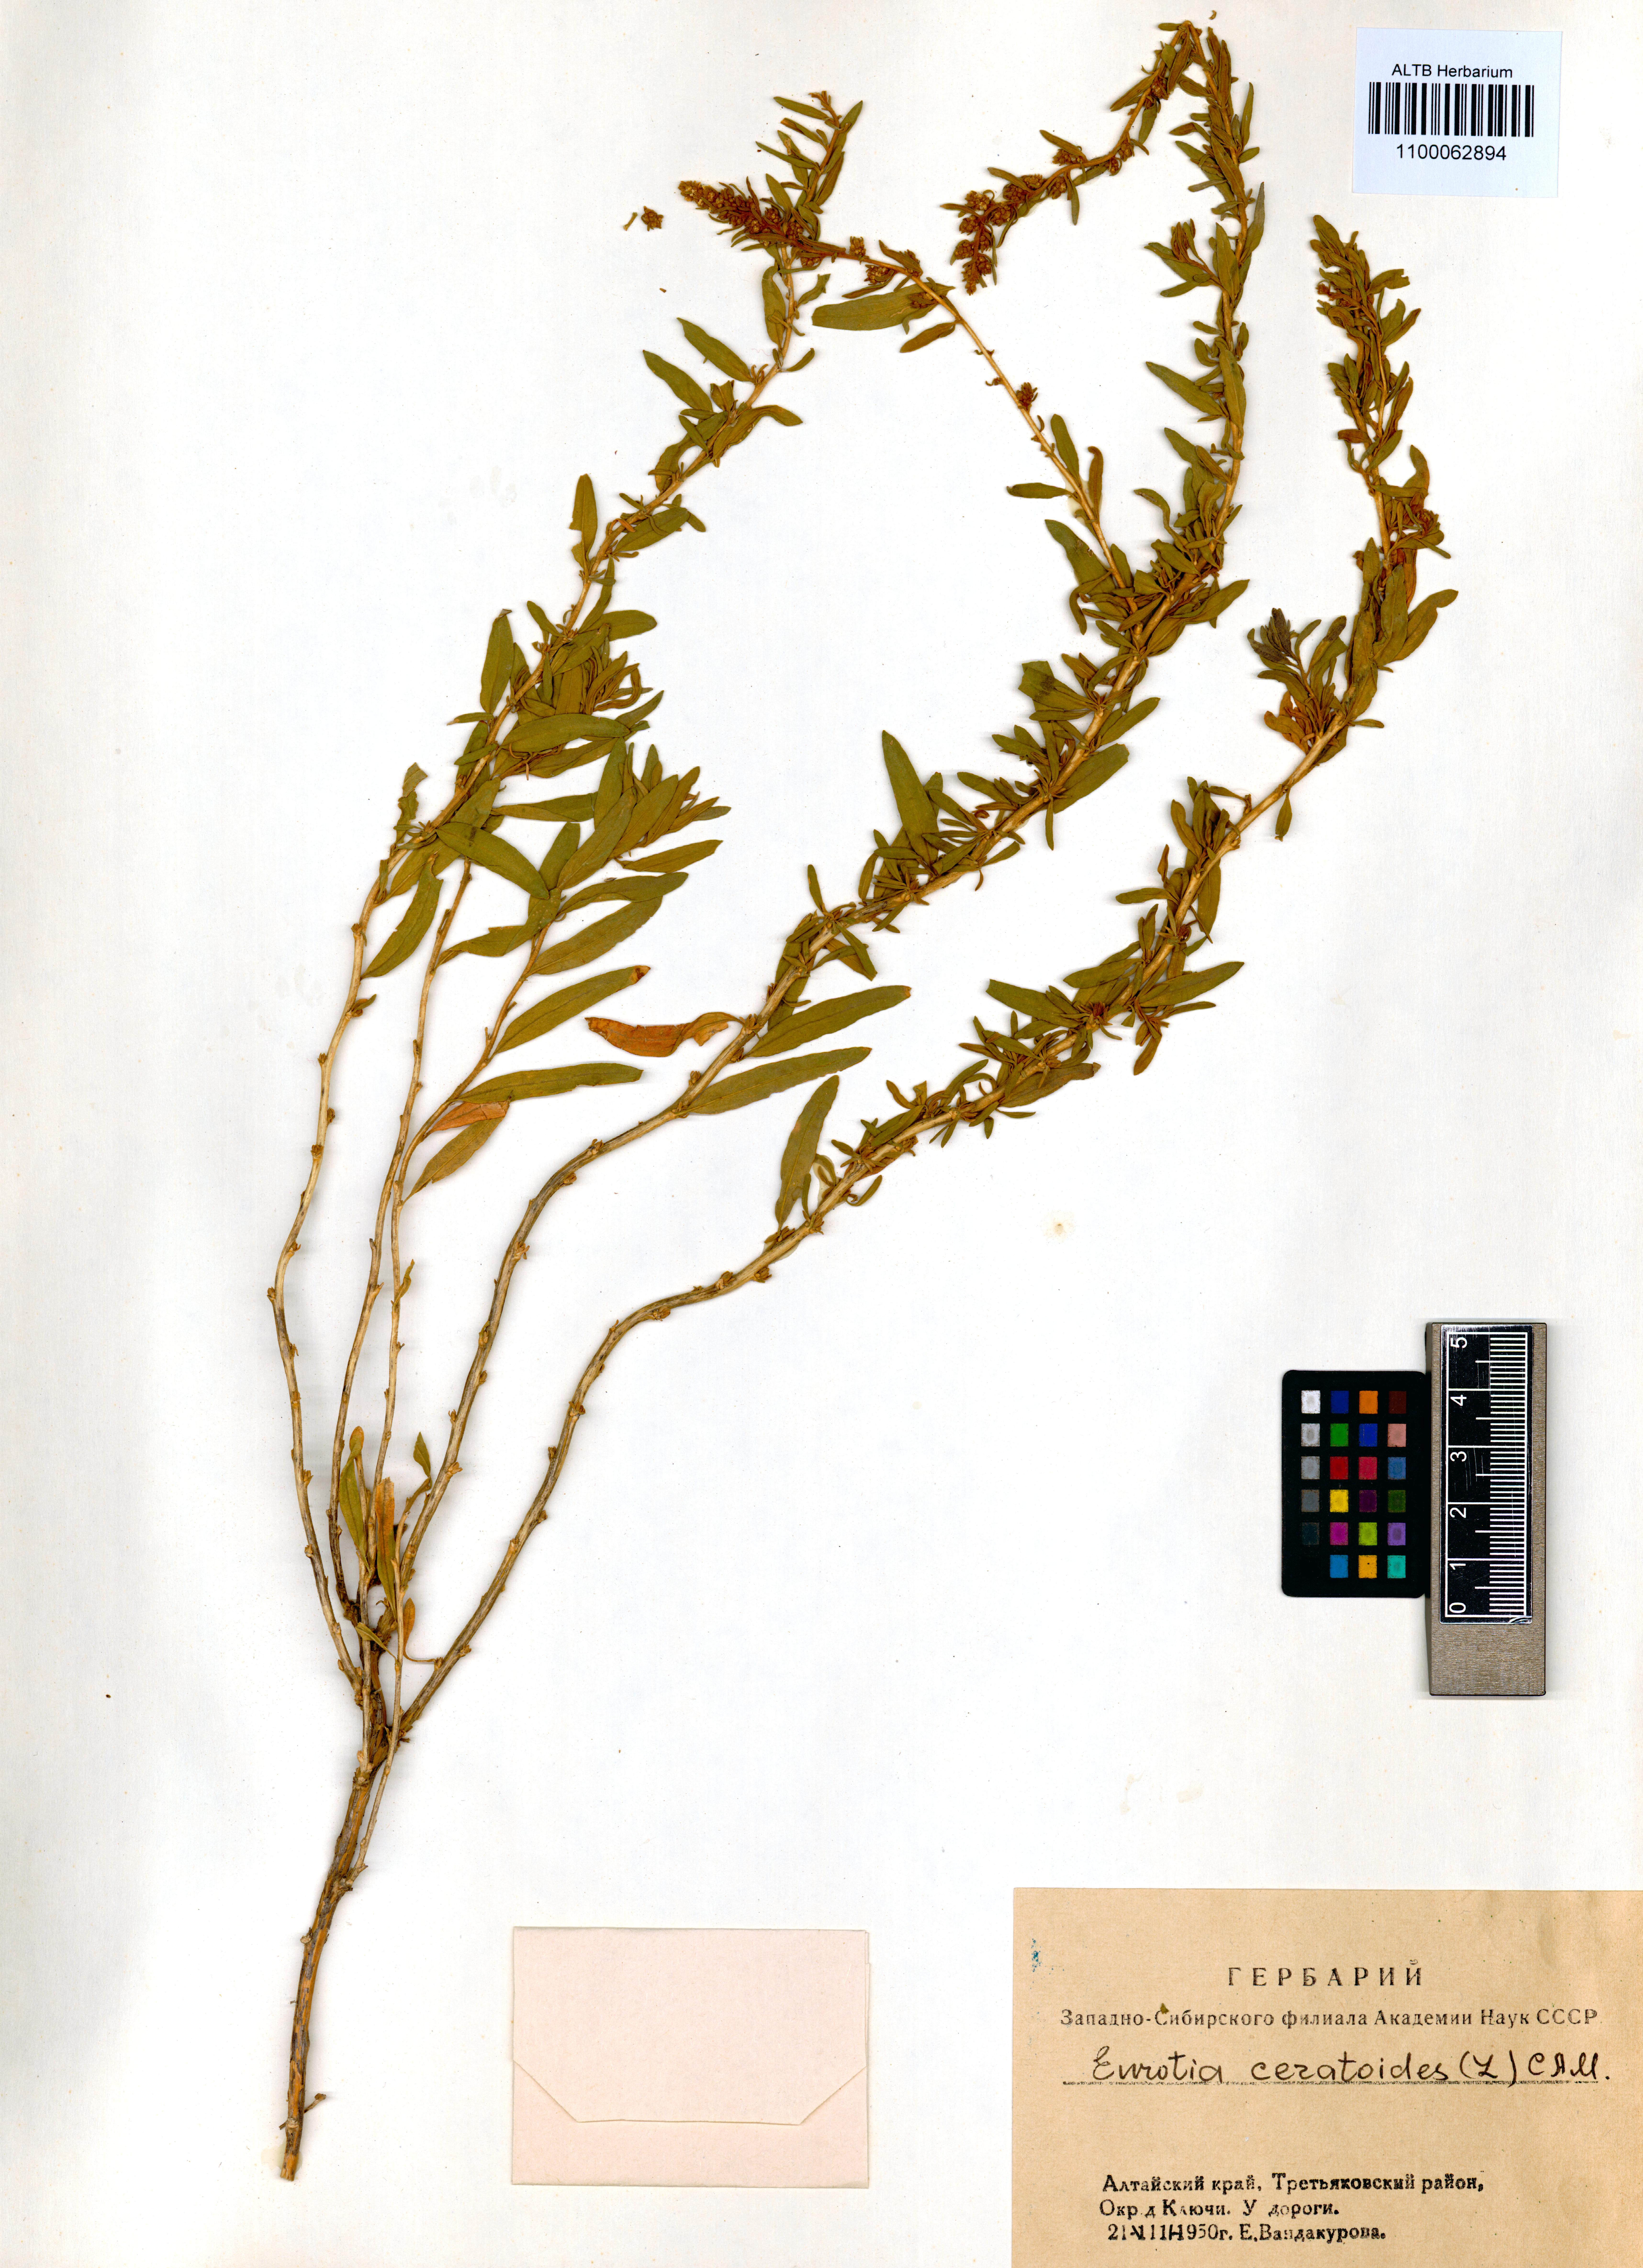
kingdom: Plantae
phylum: Tracheophyta
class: Magnoliopsida
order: Caryophyllales
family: Amaranthaceae
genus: Krascheninnikovia
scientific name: Krascheninnikovia ceratoides
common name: Pamirian winterfat
